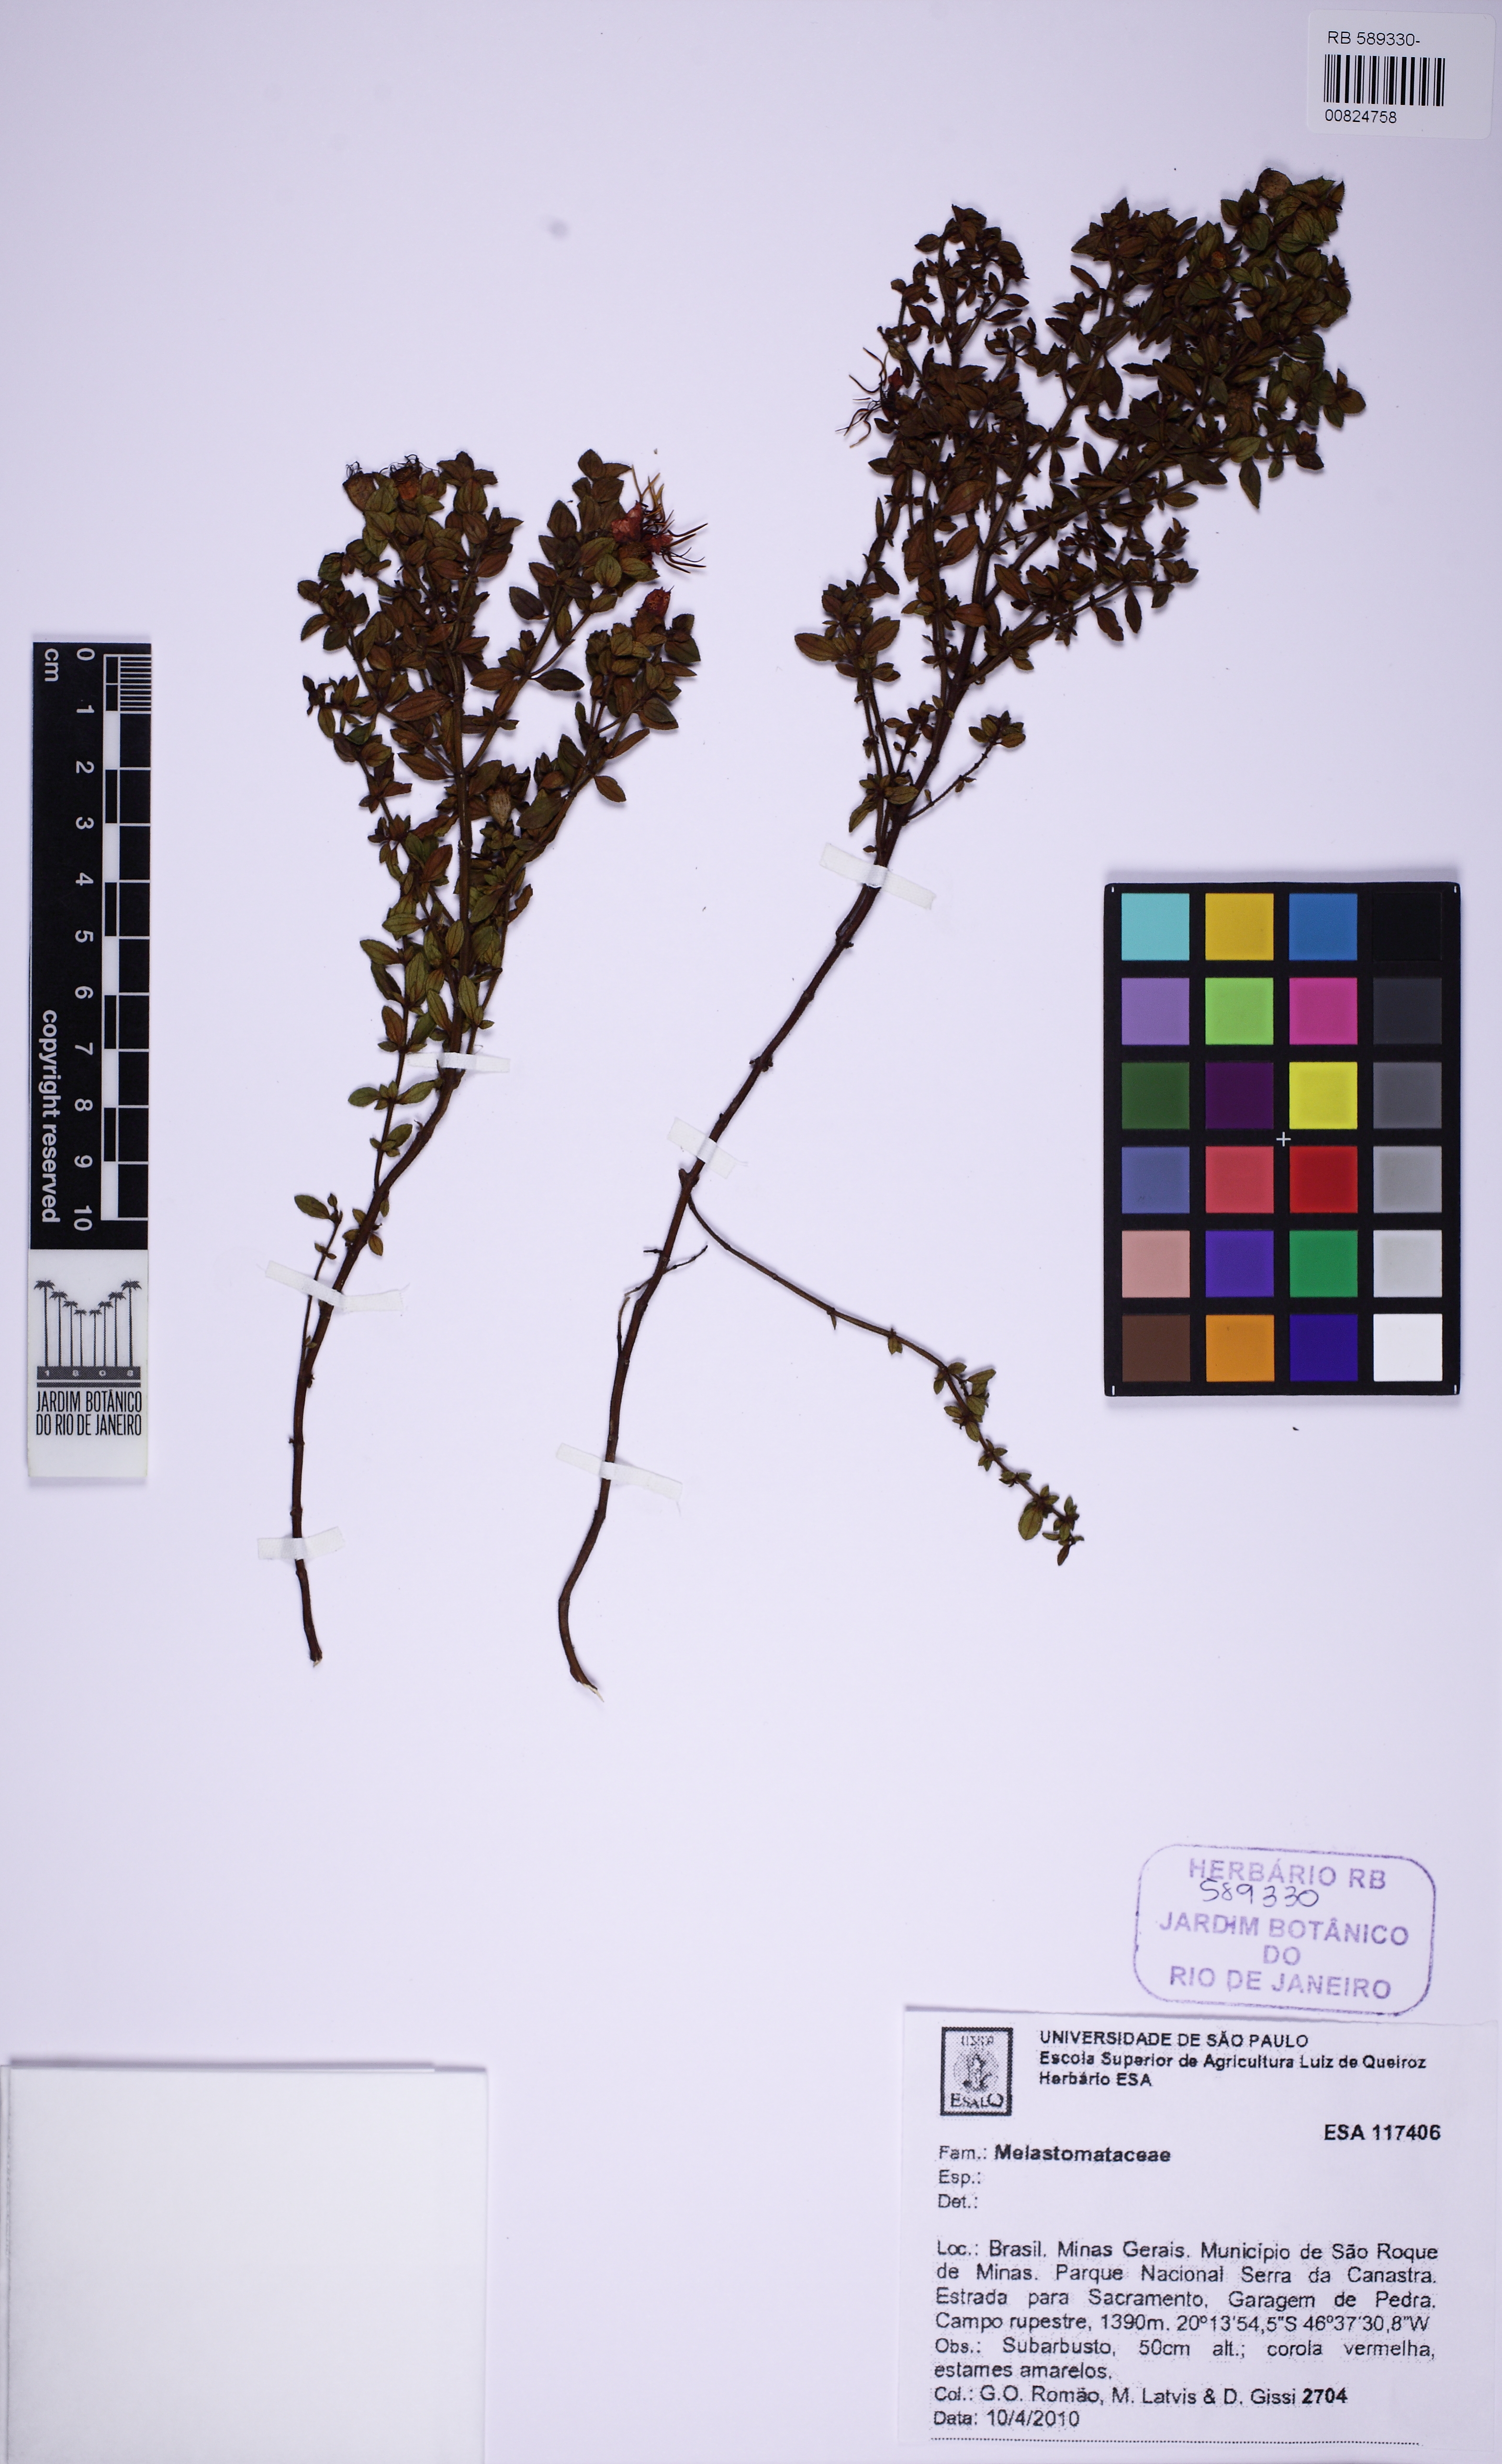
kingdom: Plantae
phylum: Tracheophyta
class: Magnoliopsida
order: Myrtales
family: Melastomataceae
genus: Cambessedesia
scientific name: Cambessedesia
